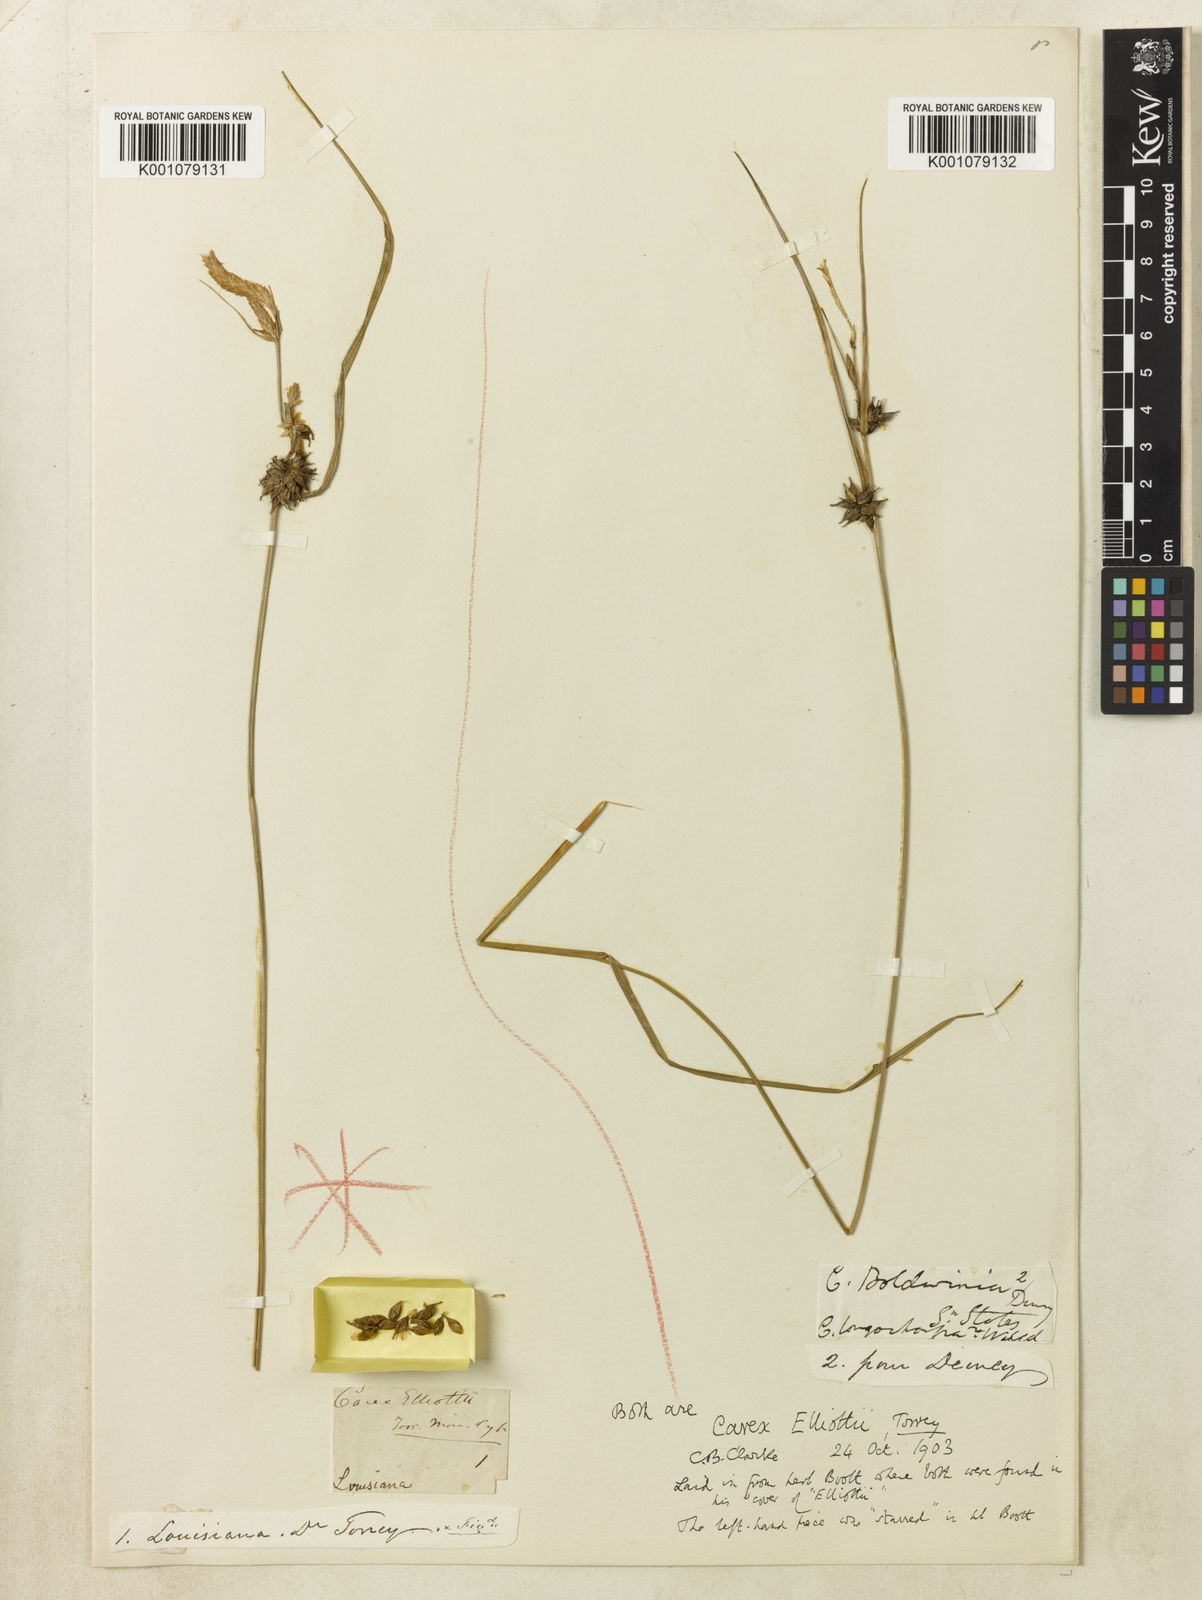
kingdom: Plantae
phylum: Tracheophyta
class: Liliopsida
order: Poales
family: Cyperaceae
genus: Carex
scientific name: Carex elliottii
